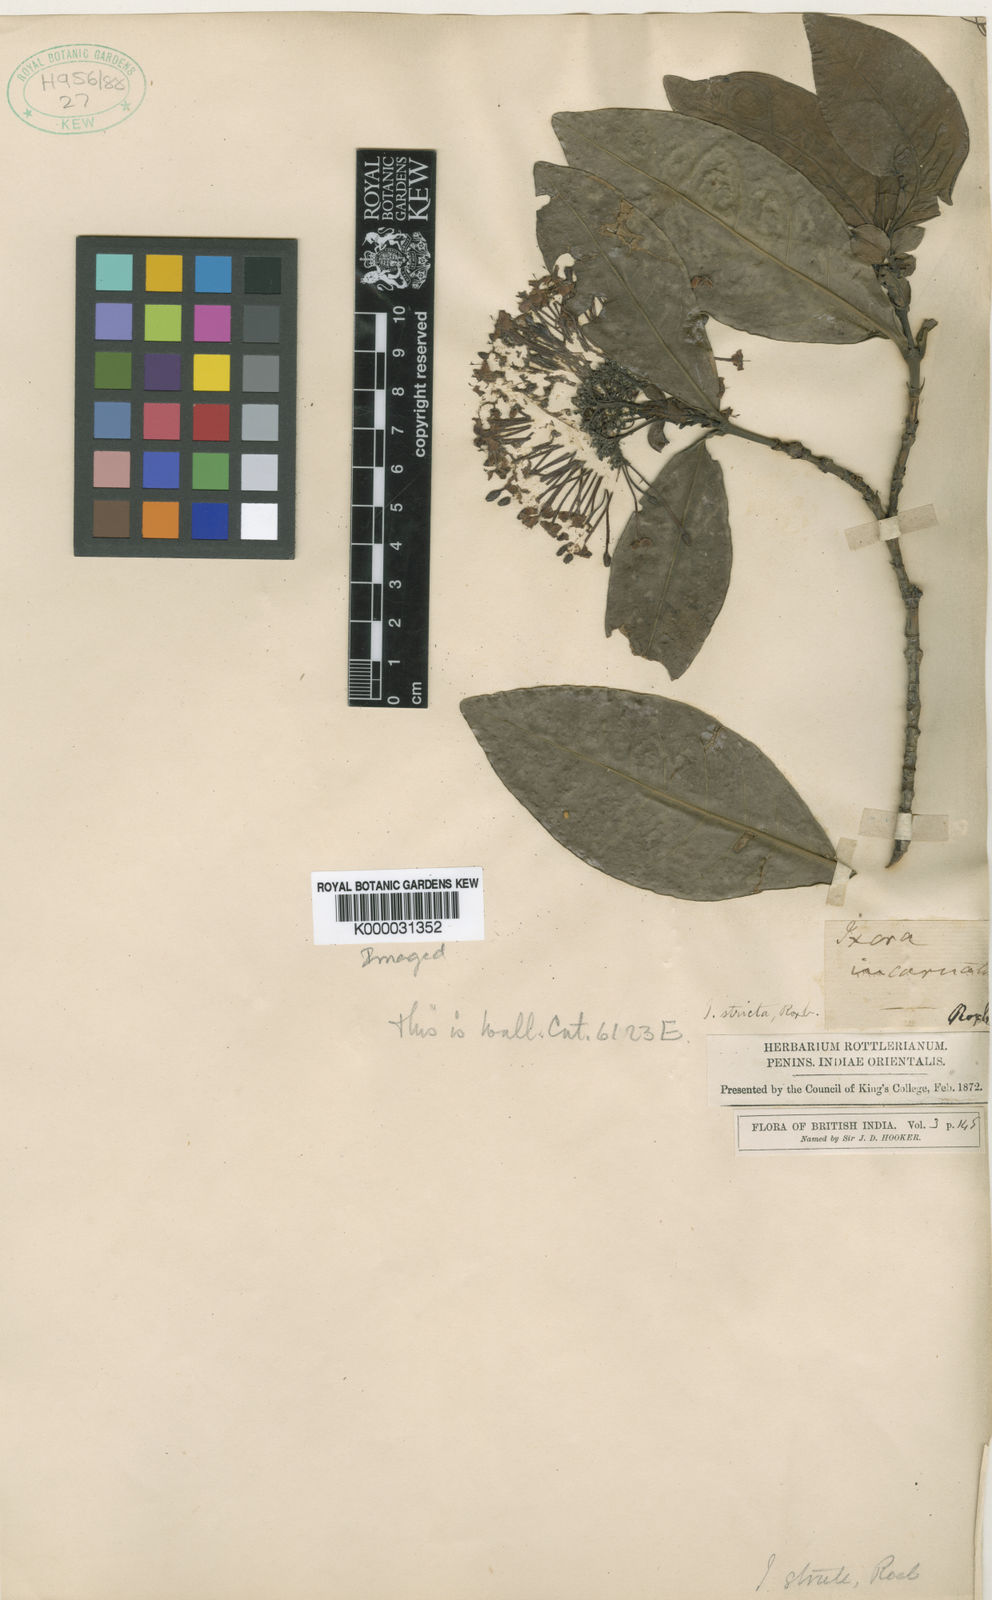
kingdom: Plantae
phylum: Tracheophyta
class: Magnoliopsida
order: Gentianales
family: Rubiaceae
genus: Ixora
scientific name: Ixora chinensis
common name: Chinese ixora
